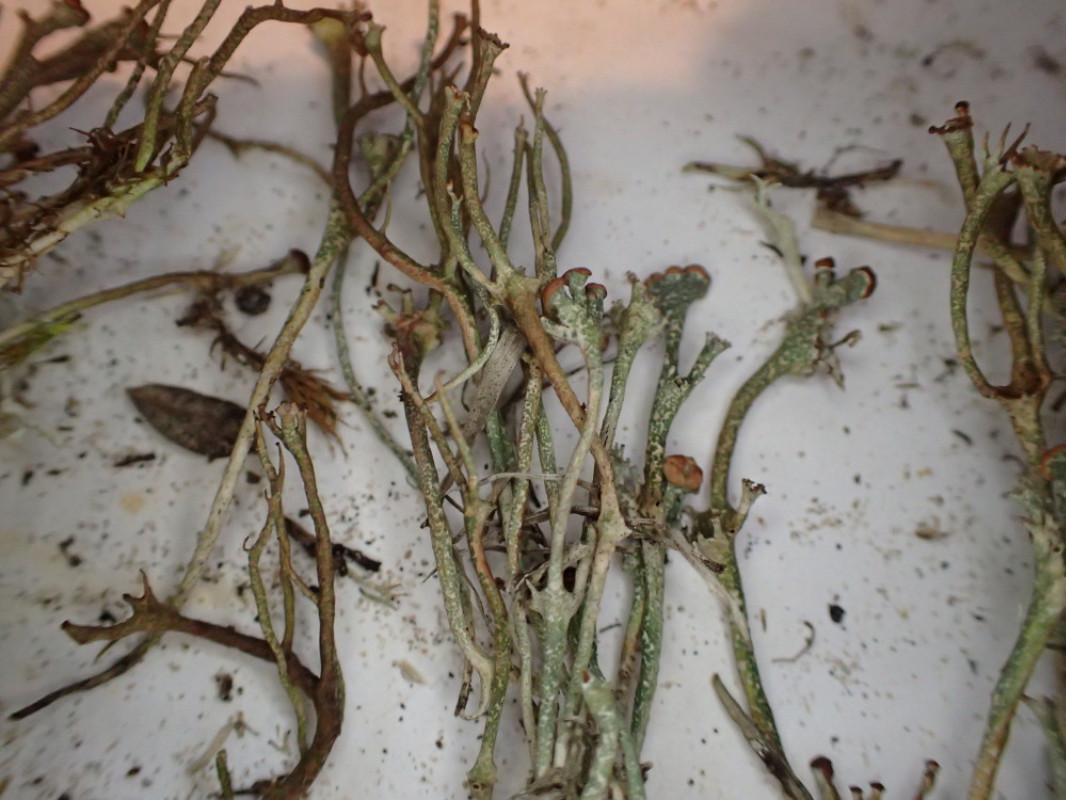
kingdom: Fungi
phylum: Ascomycota
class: Lecanoromycetes
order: Lecanorales
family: Cladoniaceae
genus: Cladonia
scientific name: Cladonia gracilis
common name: slank bægerlav
